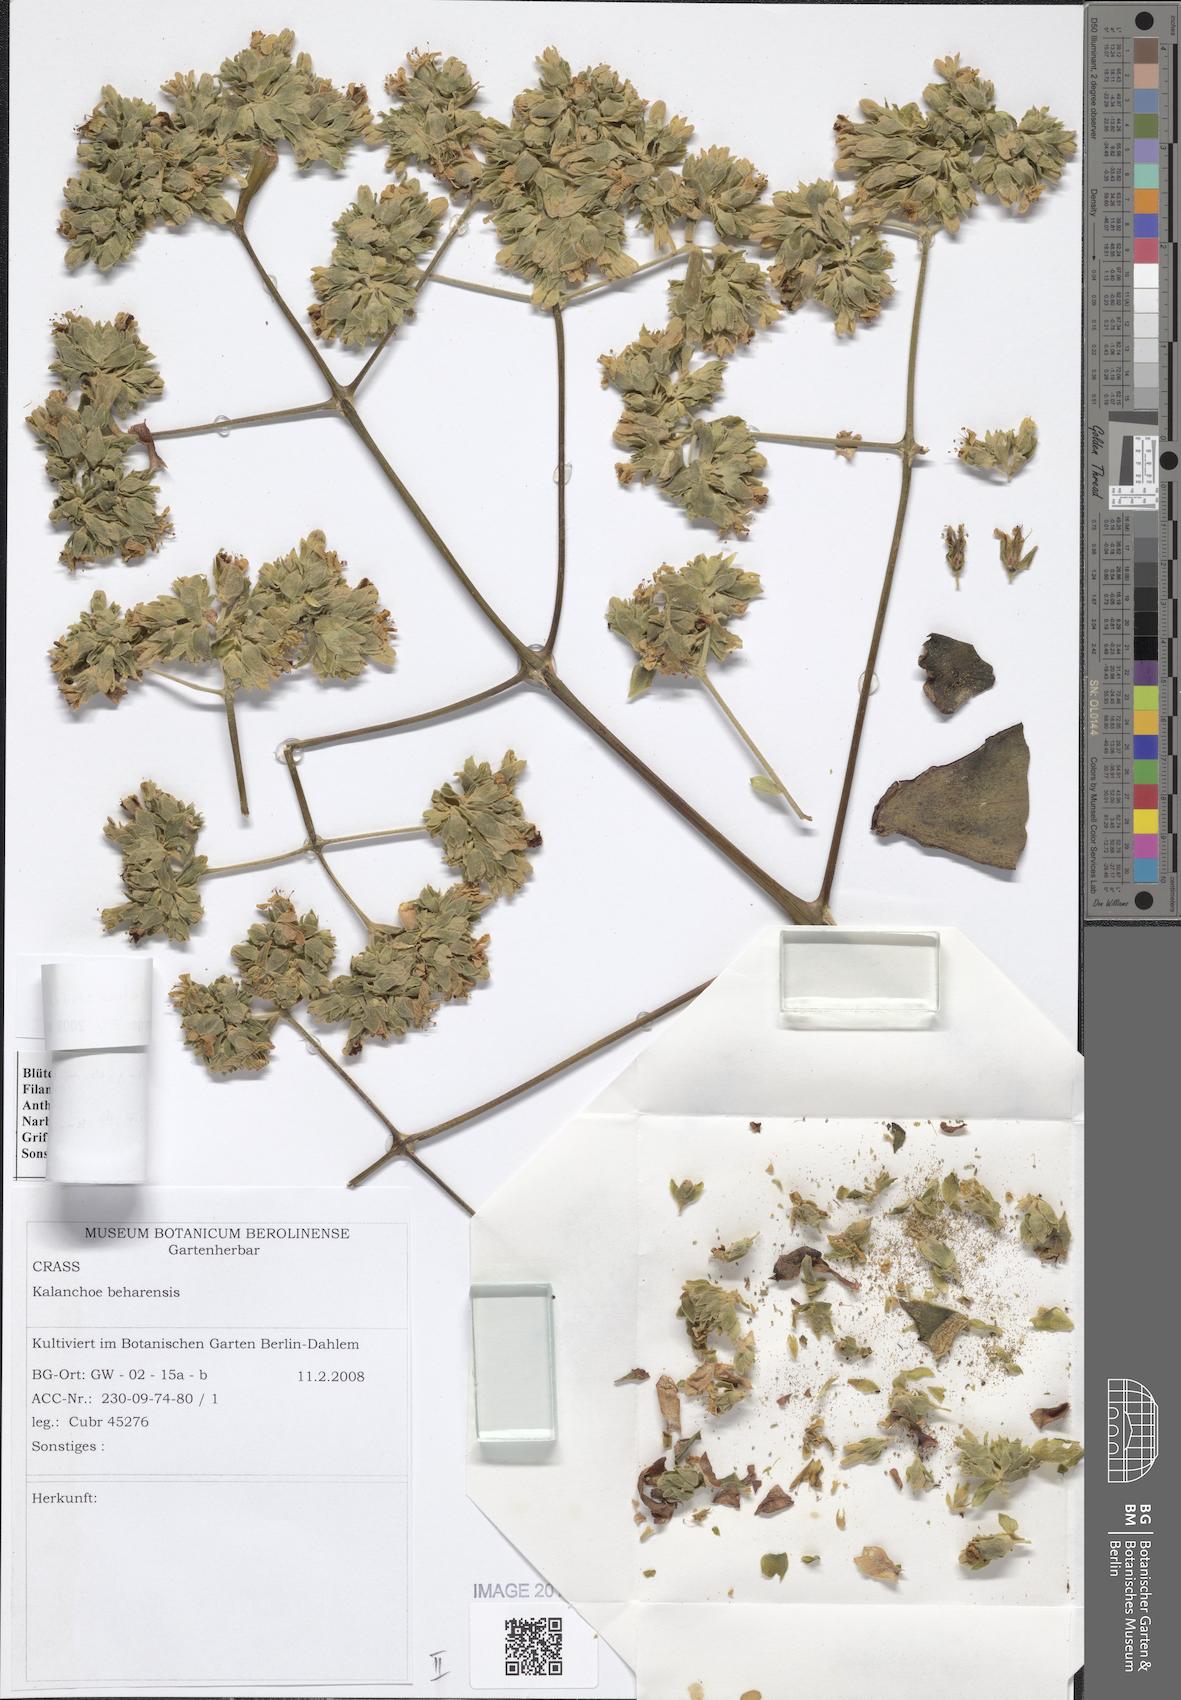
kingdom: Plantae
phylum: Tracheophyta
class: Magnoliopsida
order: Saxifragales
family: Crassulaceae
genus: Kalanchoe
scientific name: Kalanchoe beharensis
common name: Velvet leaf
